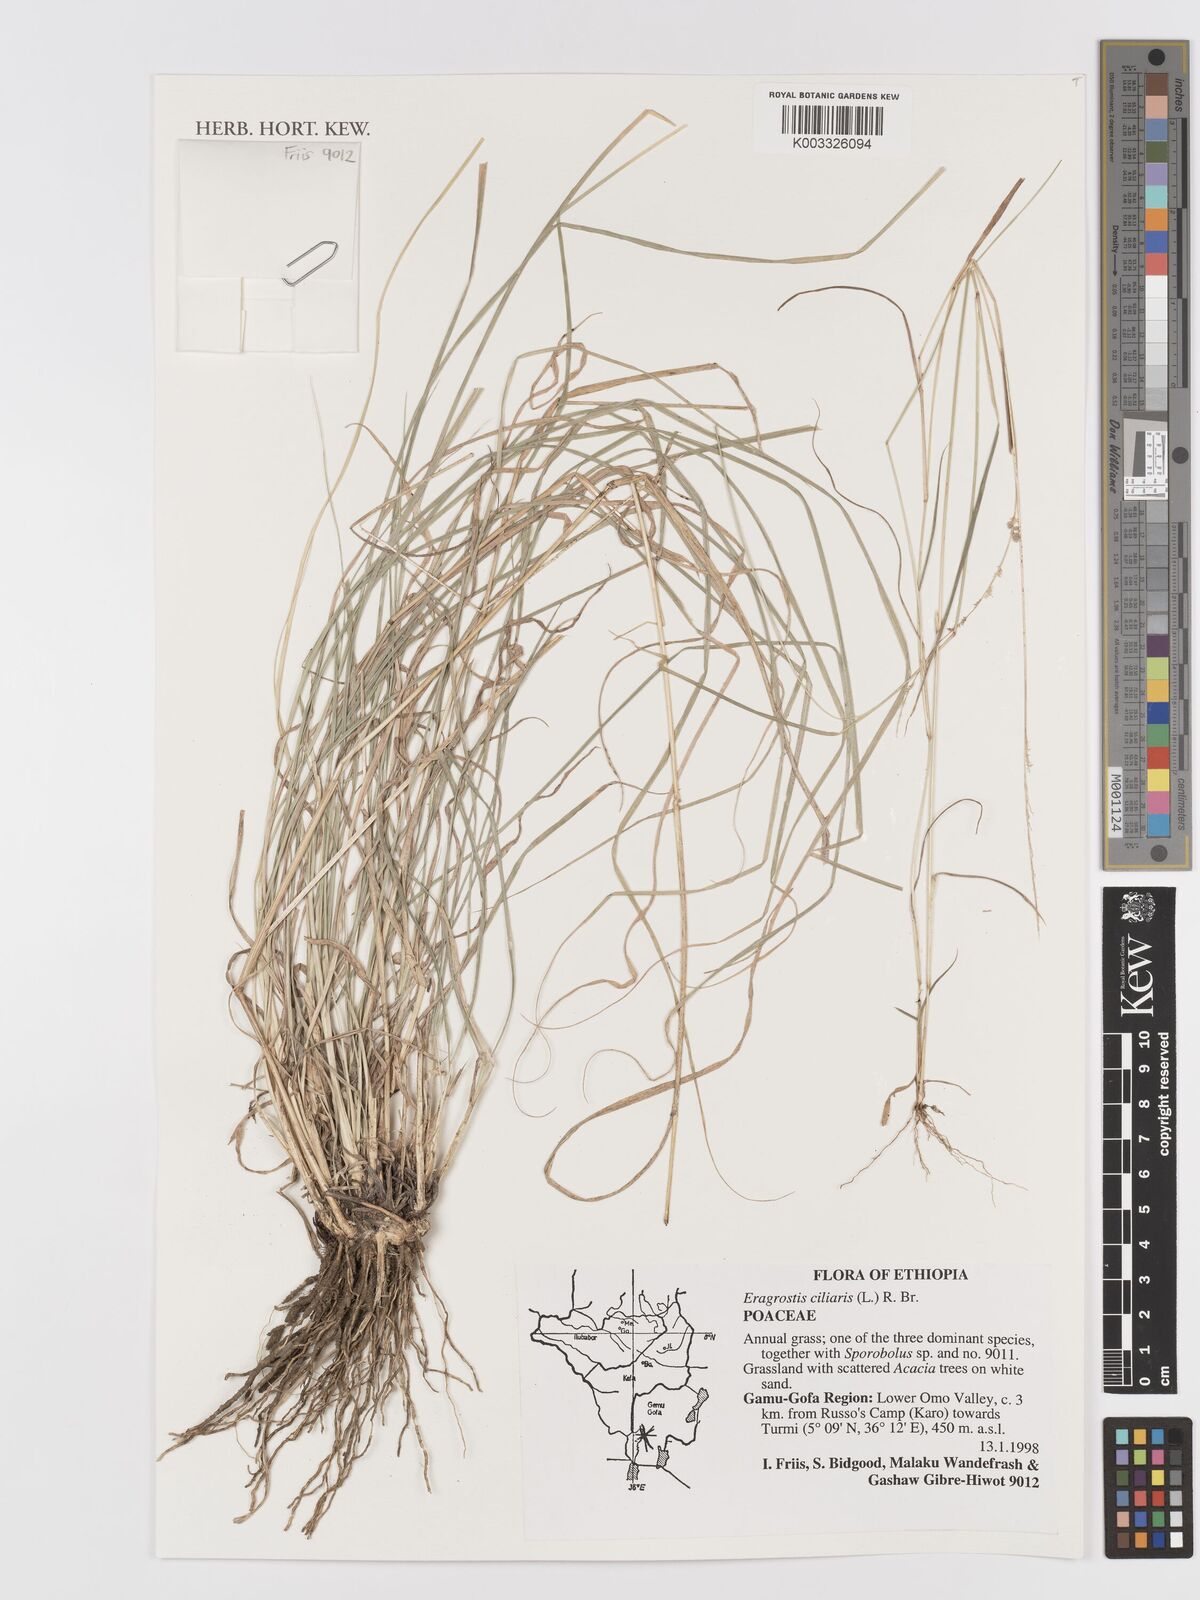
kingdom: Plantae
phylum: Tracheophyta
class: Liliopsida
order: Poales
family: Poaceae
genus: Eragrostis
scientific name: Eragrostis ciliaris
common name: Gophertail lovegrass
